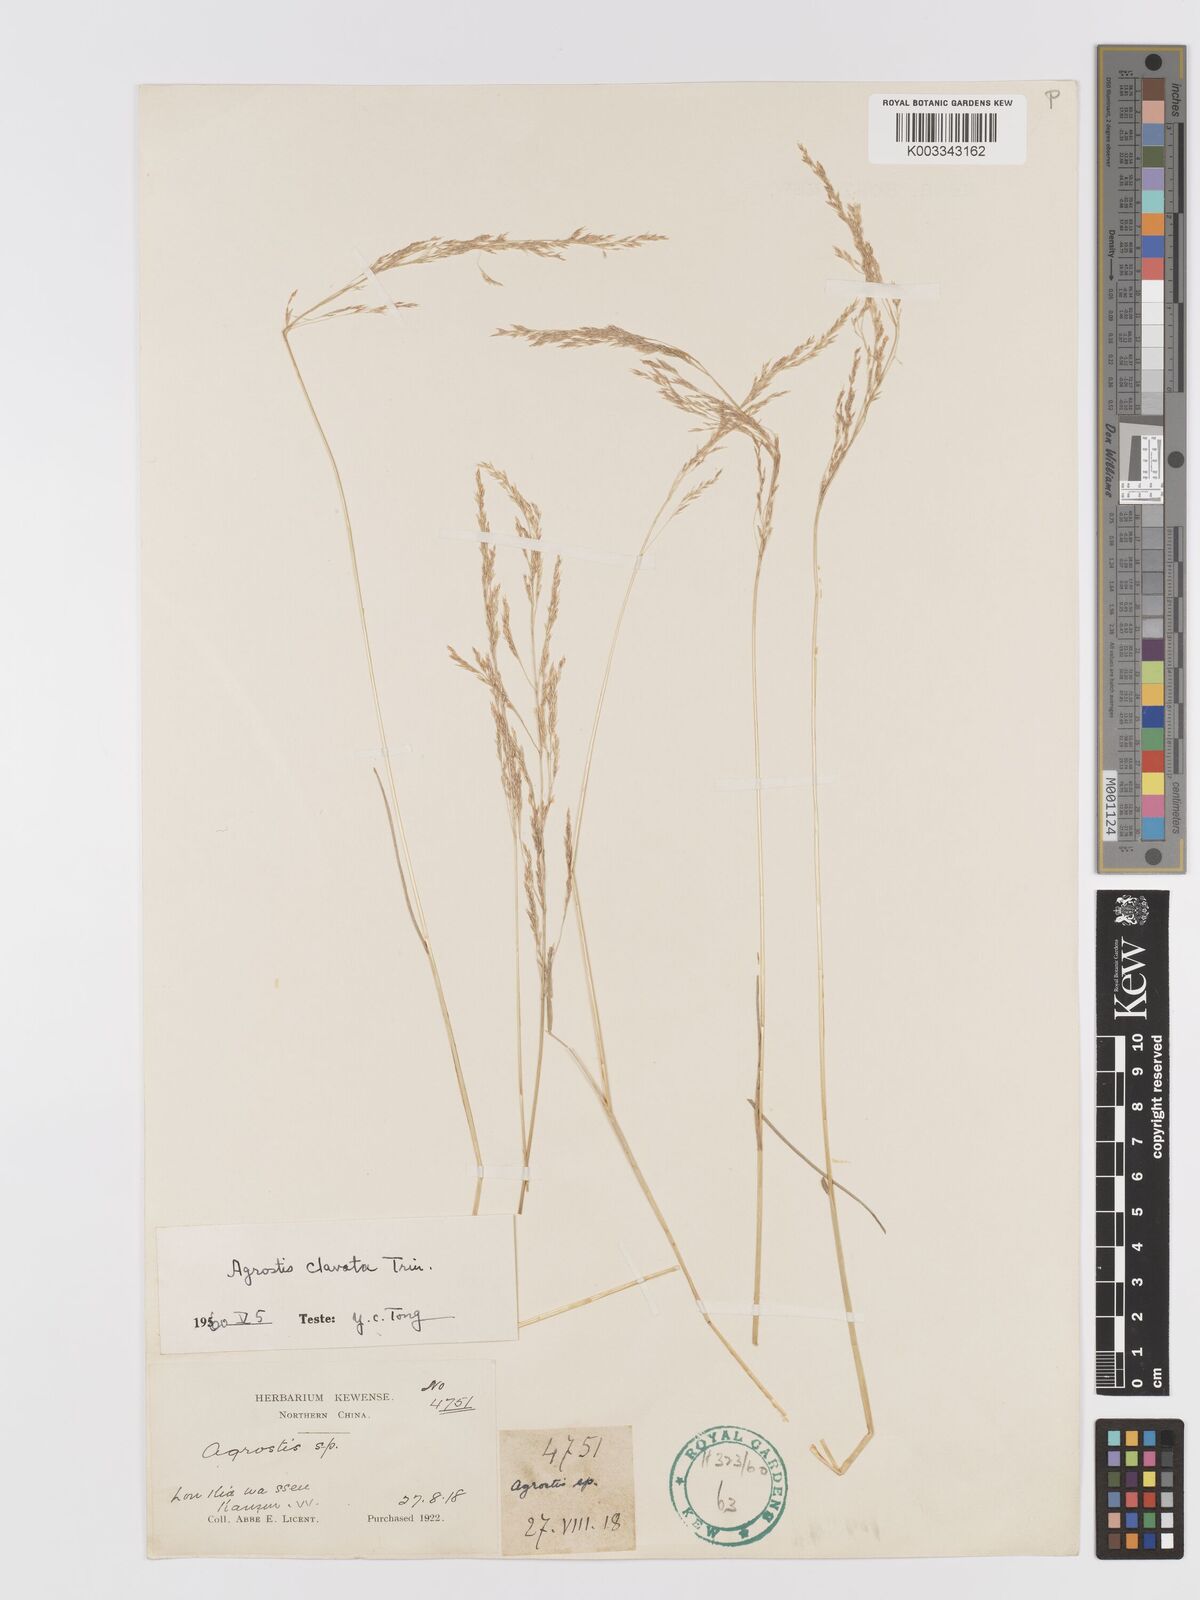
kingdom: Plantae
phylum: Tracheophyta
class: Liliopsida
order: Poales
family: Poaceae
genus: Agrostis
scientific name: Agrostis clavata
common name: Clavate bent
